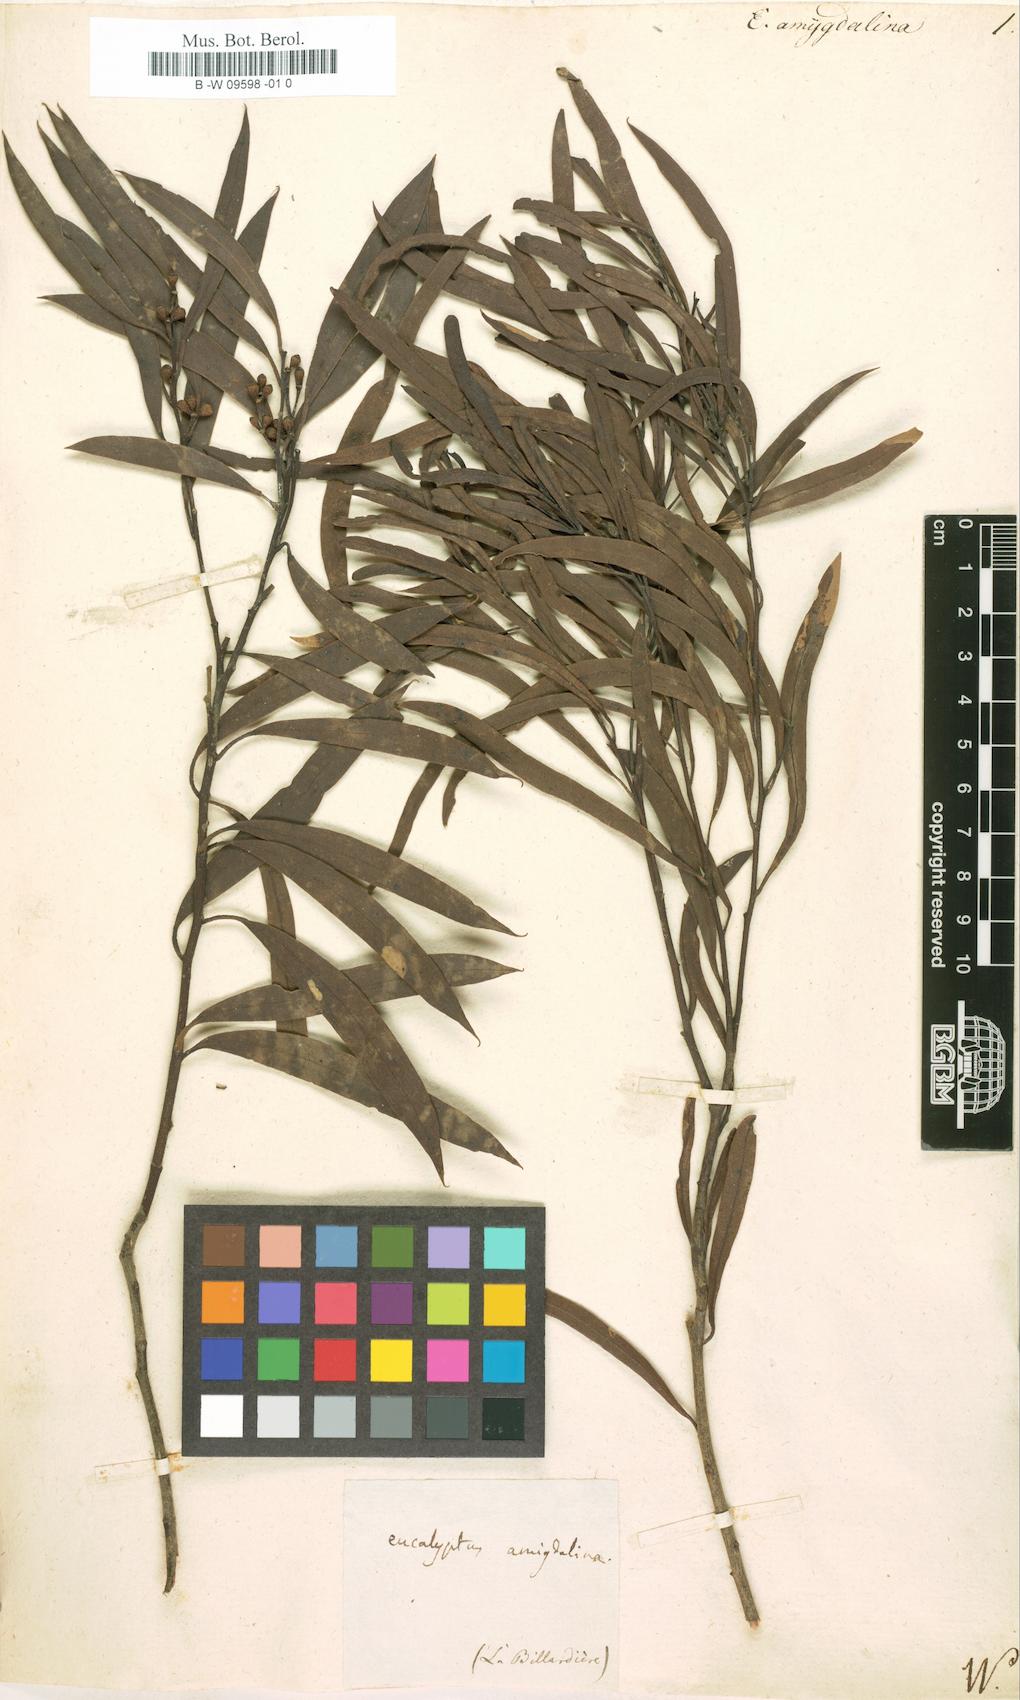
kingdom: Plantae
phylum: Tracheophyta
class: Magnoliopsida
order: Myrtales
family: Myrtaceae
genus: Eucalyptus
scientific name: Eucalyptus amygdalina
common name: Black peppermint
